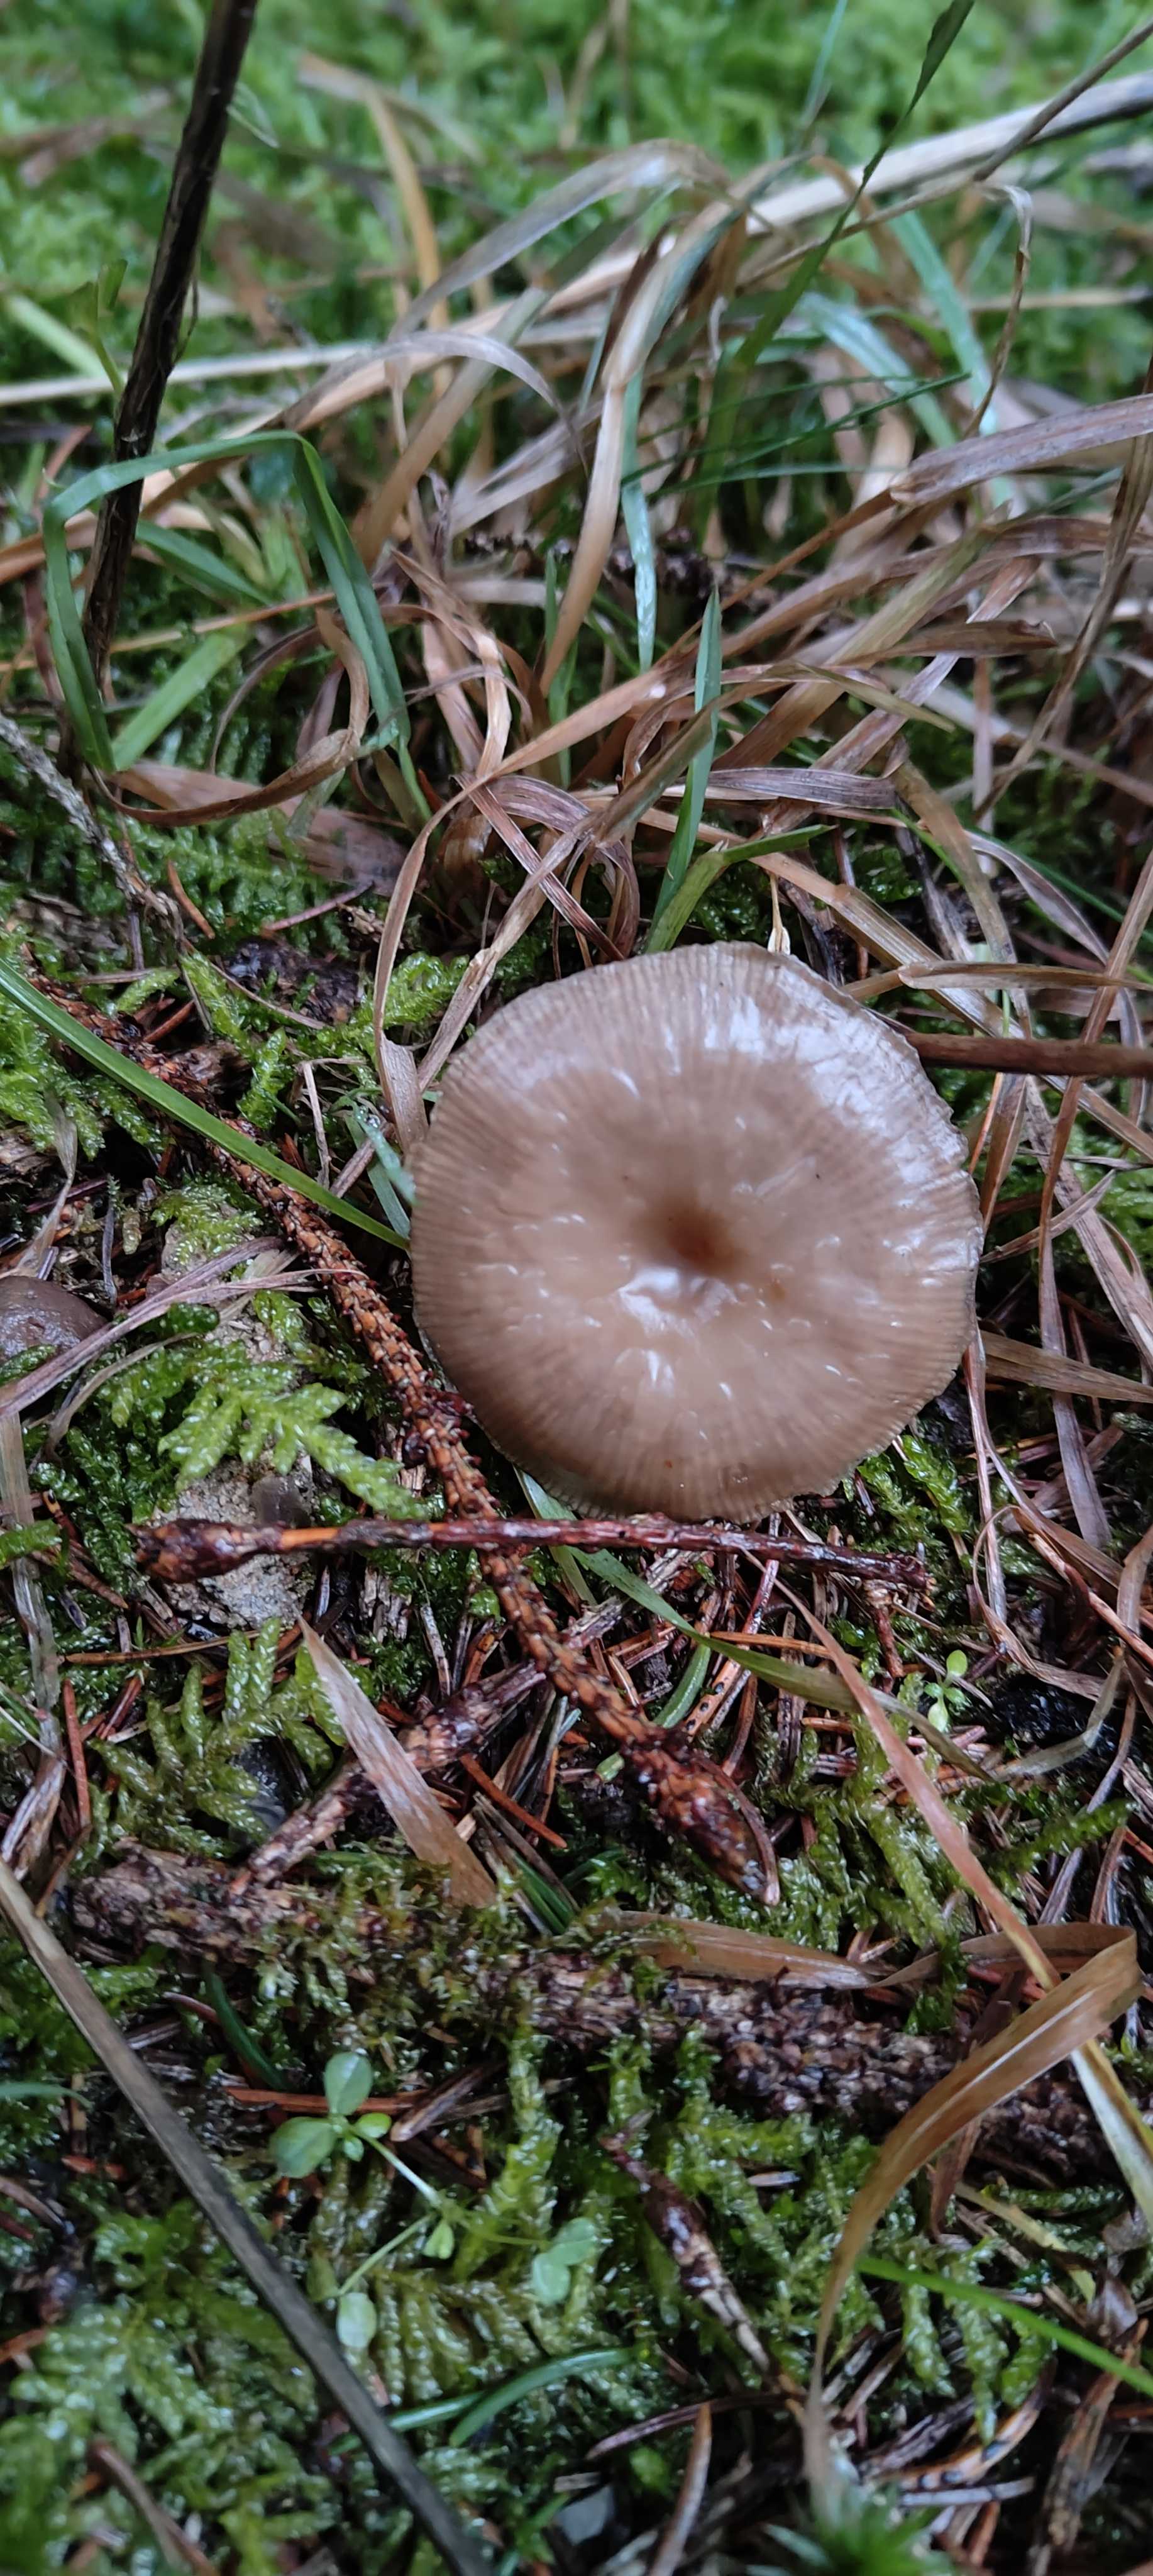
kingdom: Fungi
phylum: Basidiomycota
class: Agaricomycetes
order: Agaricales
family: Tricholomataceae
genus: Clitocybe
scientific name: Clitocybe metachroa
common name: grå tragthat
